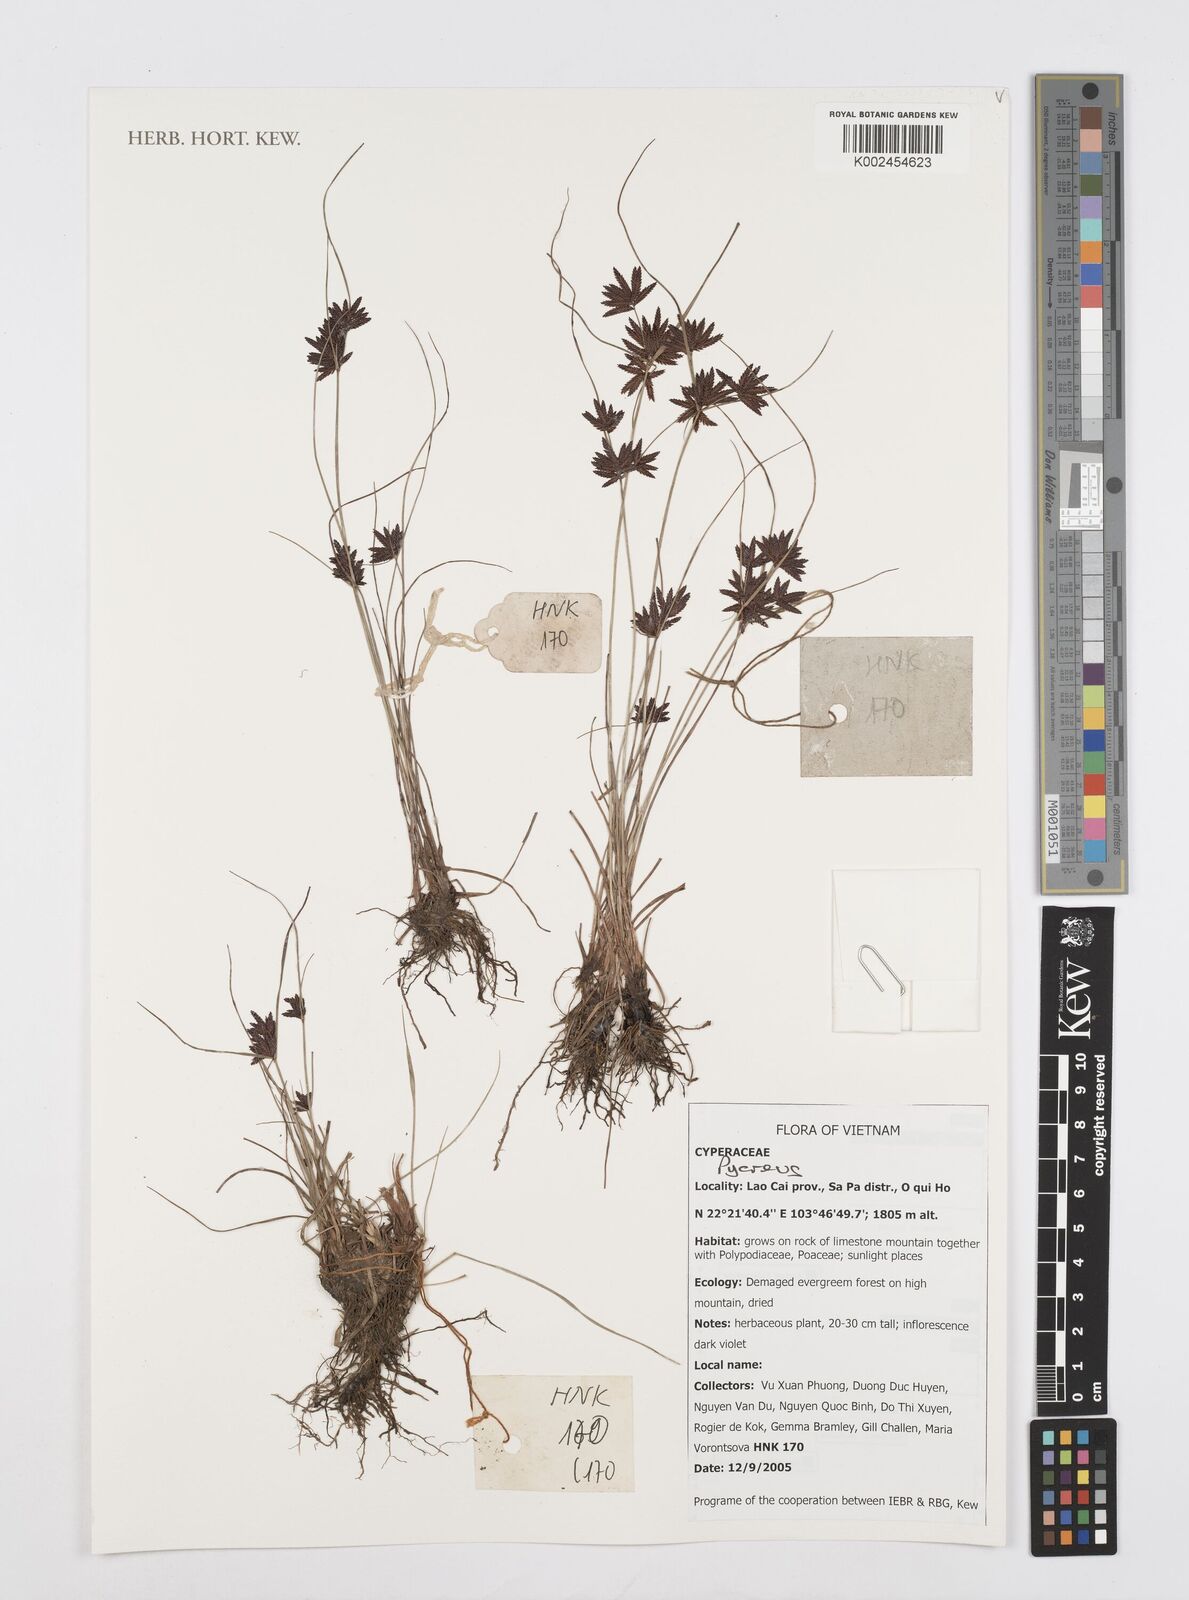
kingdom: Plantae
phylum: Tracheophyta
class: Liliopsida
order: Poales
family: Cyperaceae
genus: Cyperus
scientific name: Cyperus
